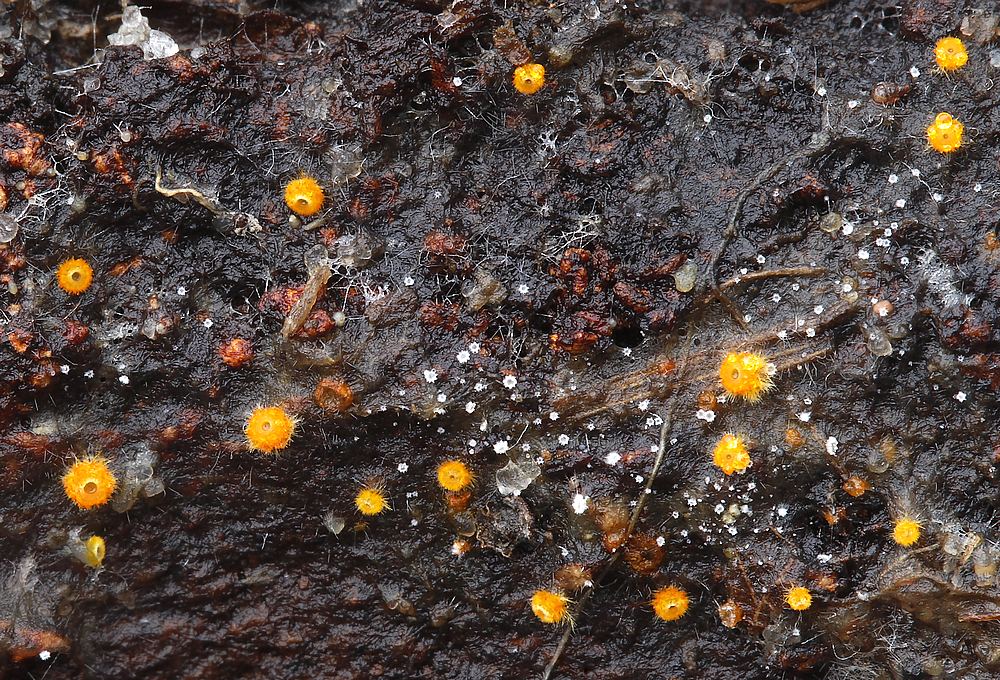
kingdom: Fungi
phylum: Ascomycota
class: Leotiomycetes
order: Helotiales
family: Arachnopezizaceae
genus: Arachnopeziza
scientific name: Arachnopeziza aurelia
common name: flamme-spindskive
